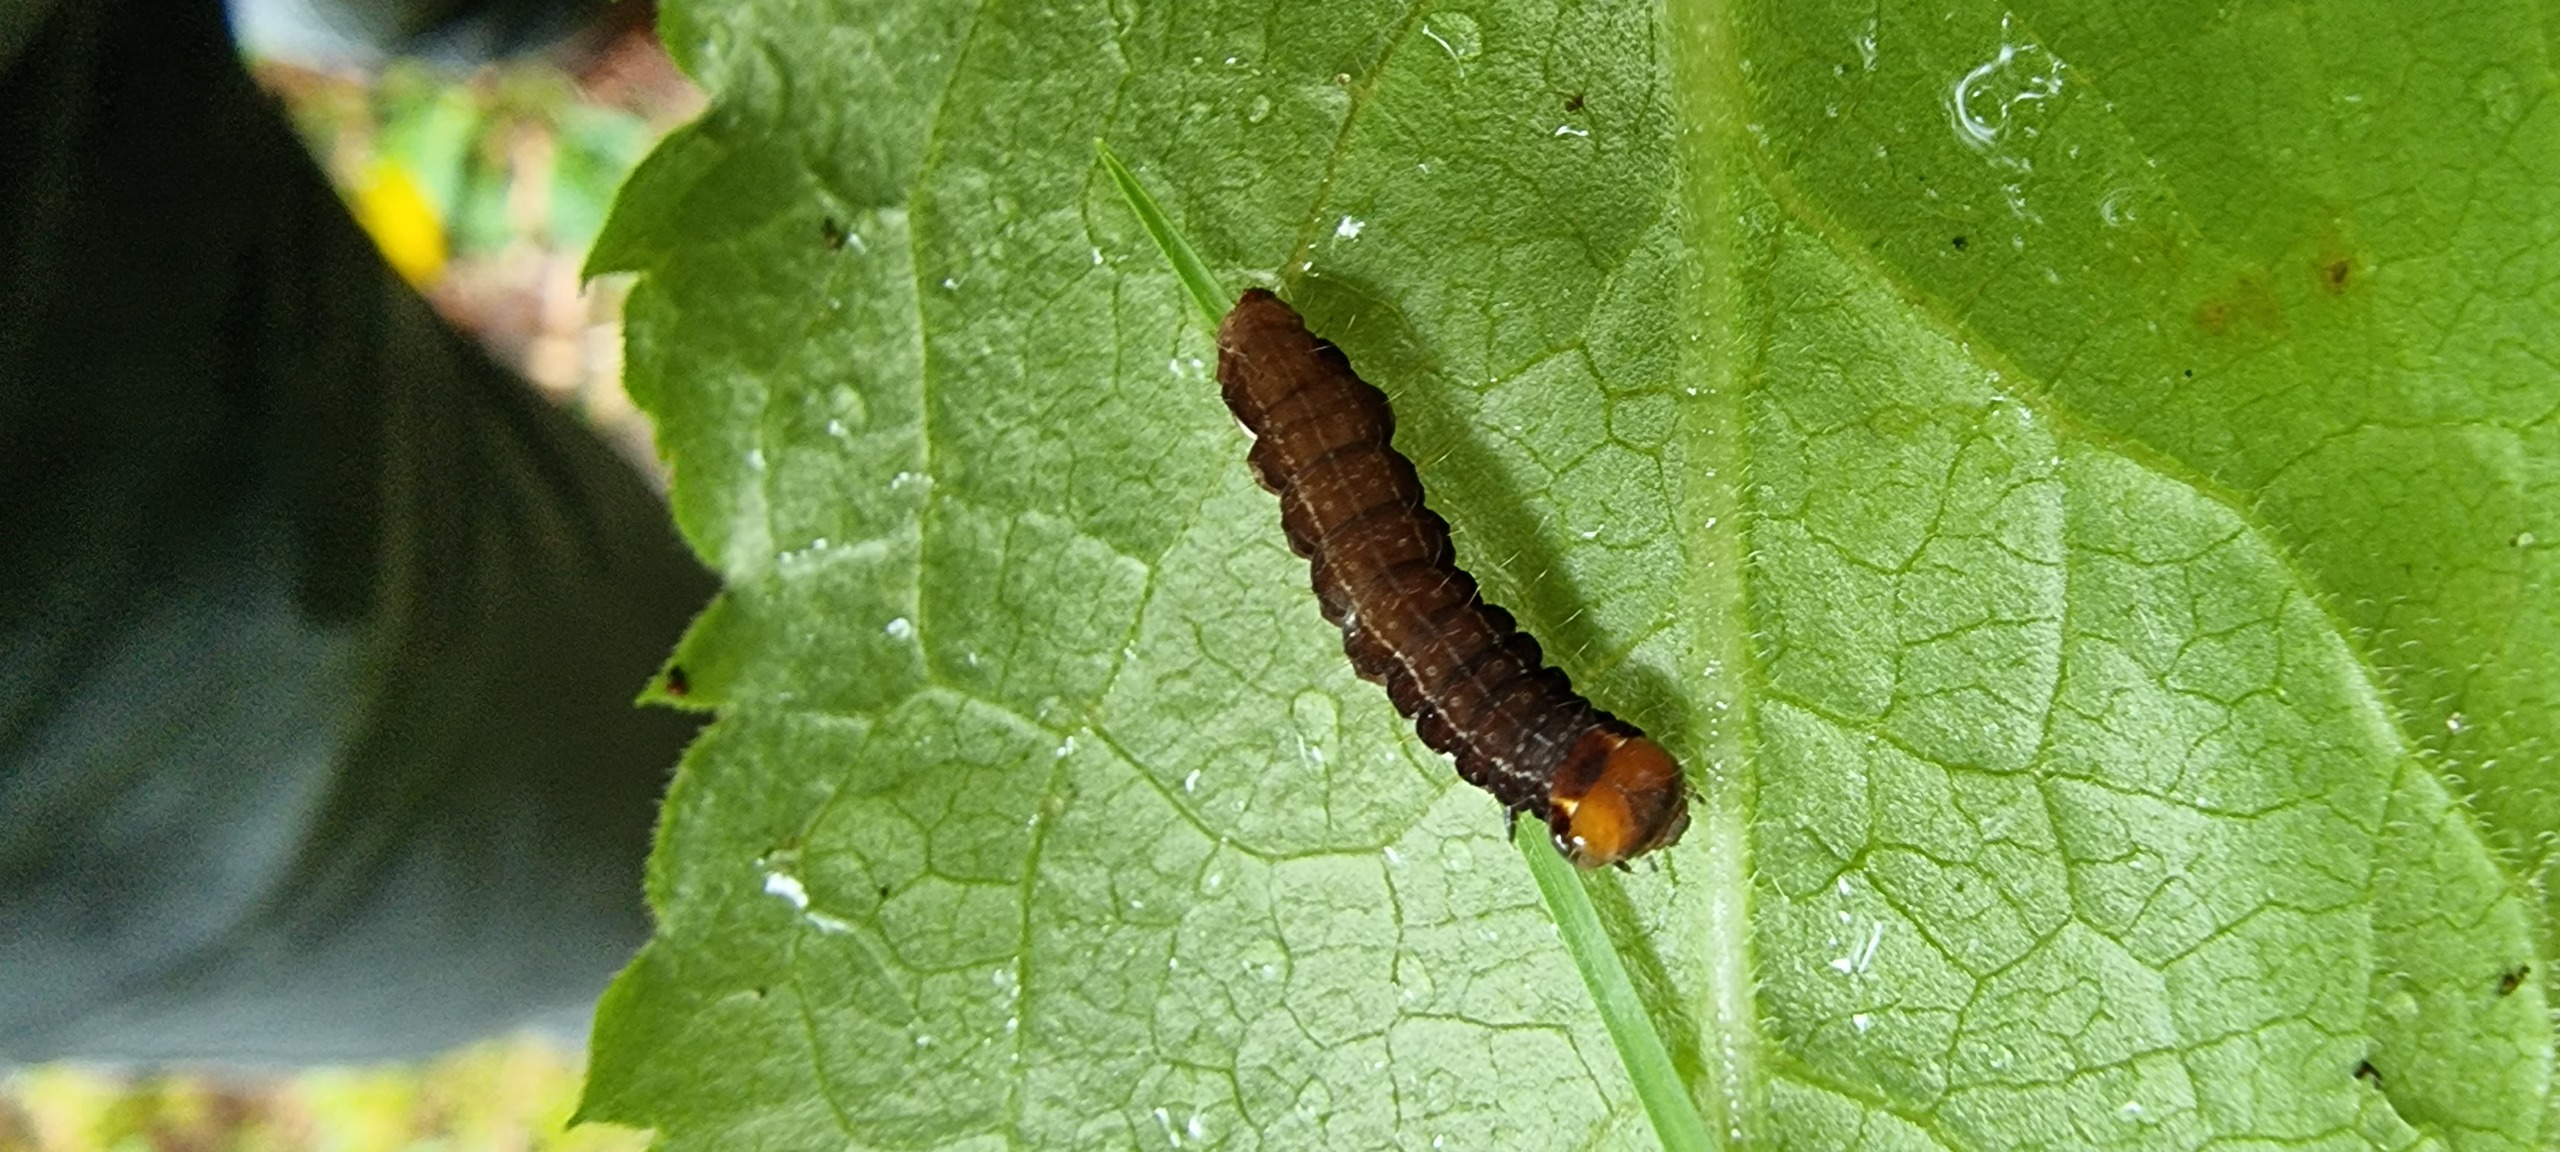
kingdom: Animalia
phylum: Arthropoda
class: Insecta
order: Lepidoptera
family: Noctuidae
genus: Eupsilia
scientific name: Eupsilia transversa
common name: Satellitugle
